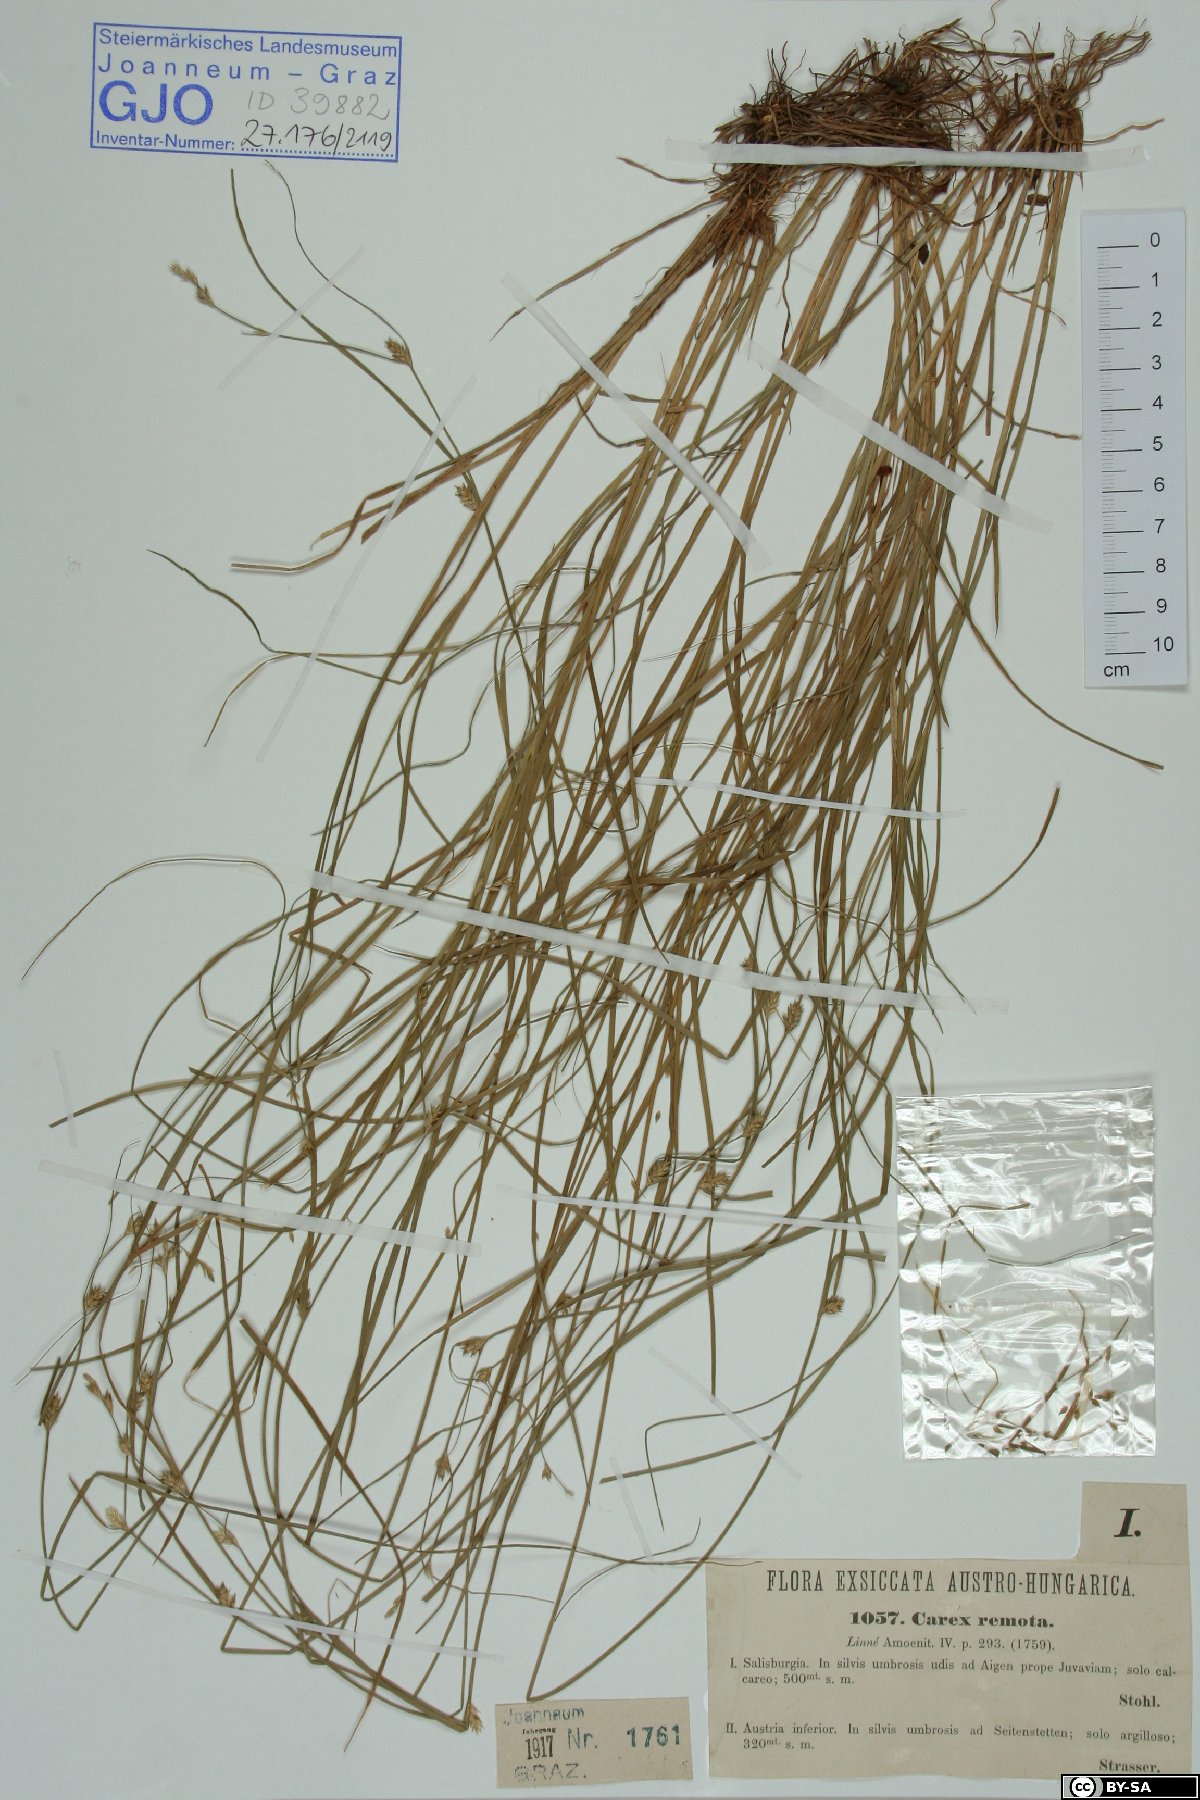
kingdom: Plantae
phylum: Tracheophyta
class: Liliopsida
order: Poales
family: Cyperaceae
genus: Carex
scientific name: Carex remota
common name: Remote sedge
